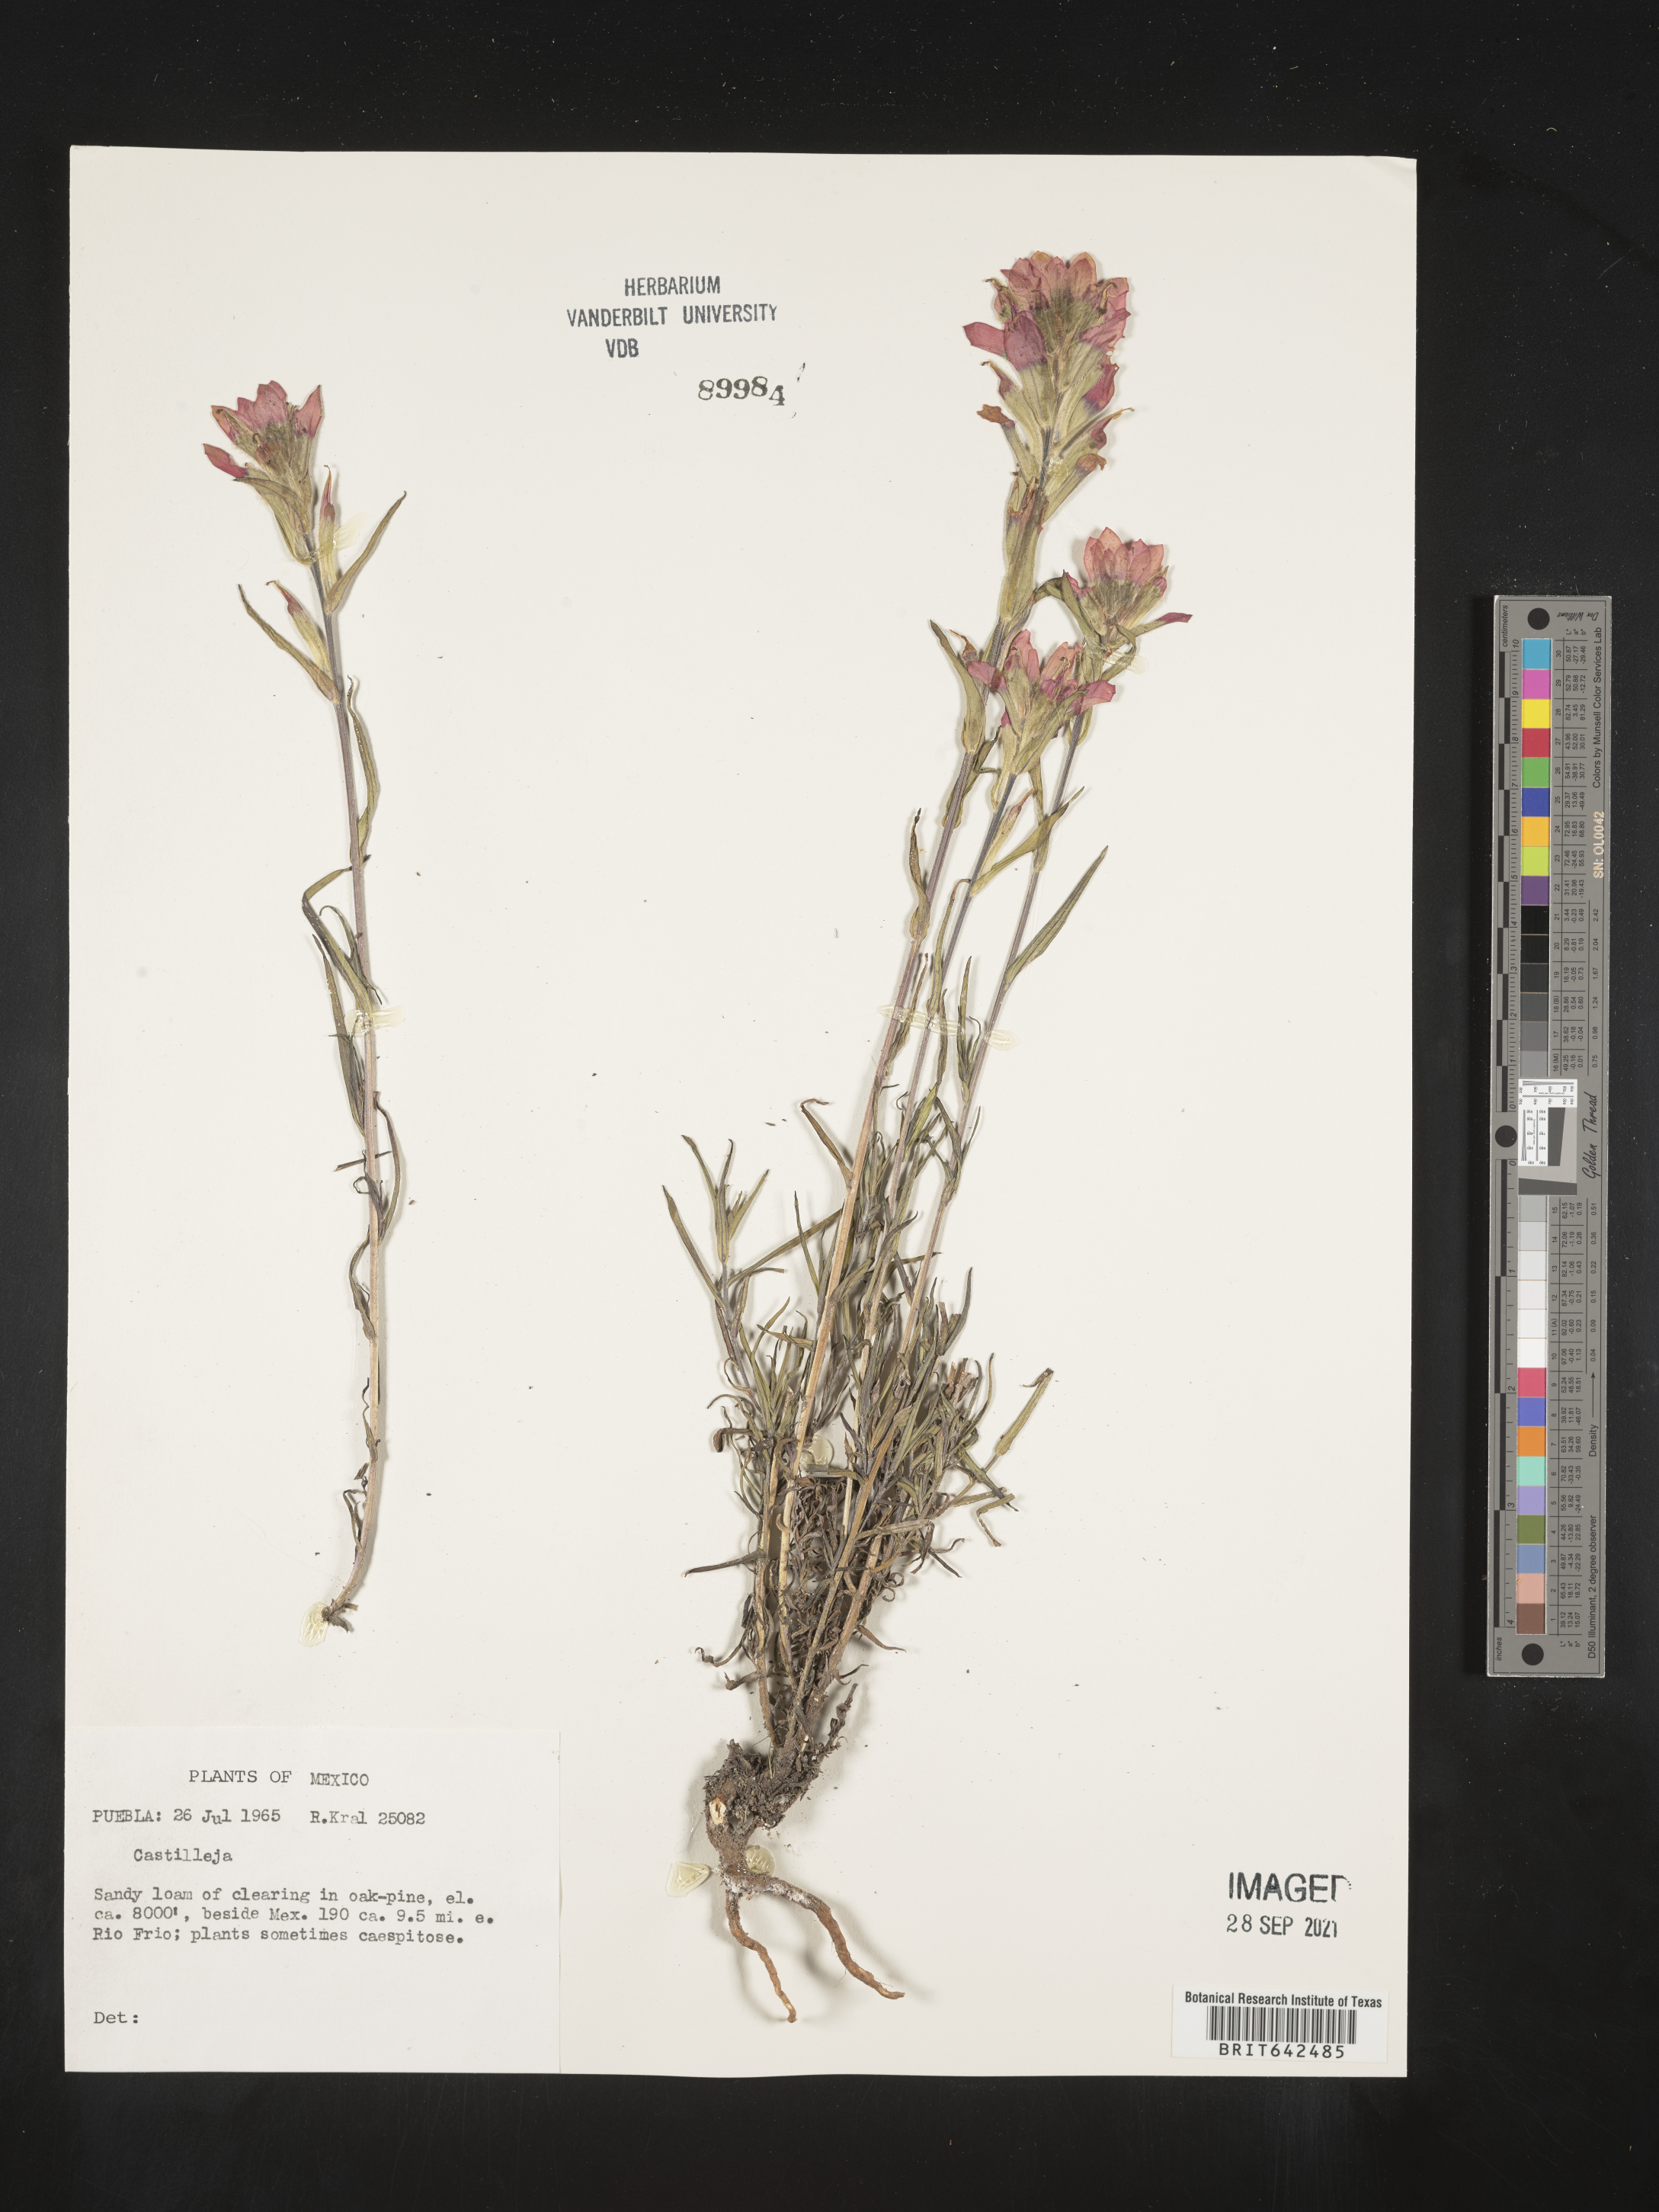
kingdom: Plantae
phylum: Tracheophyta
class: Magnoliopsida
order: Lamiales
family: Orobanchaceae
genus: Castilleja
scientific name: Castilleja
